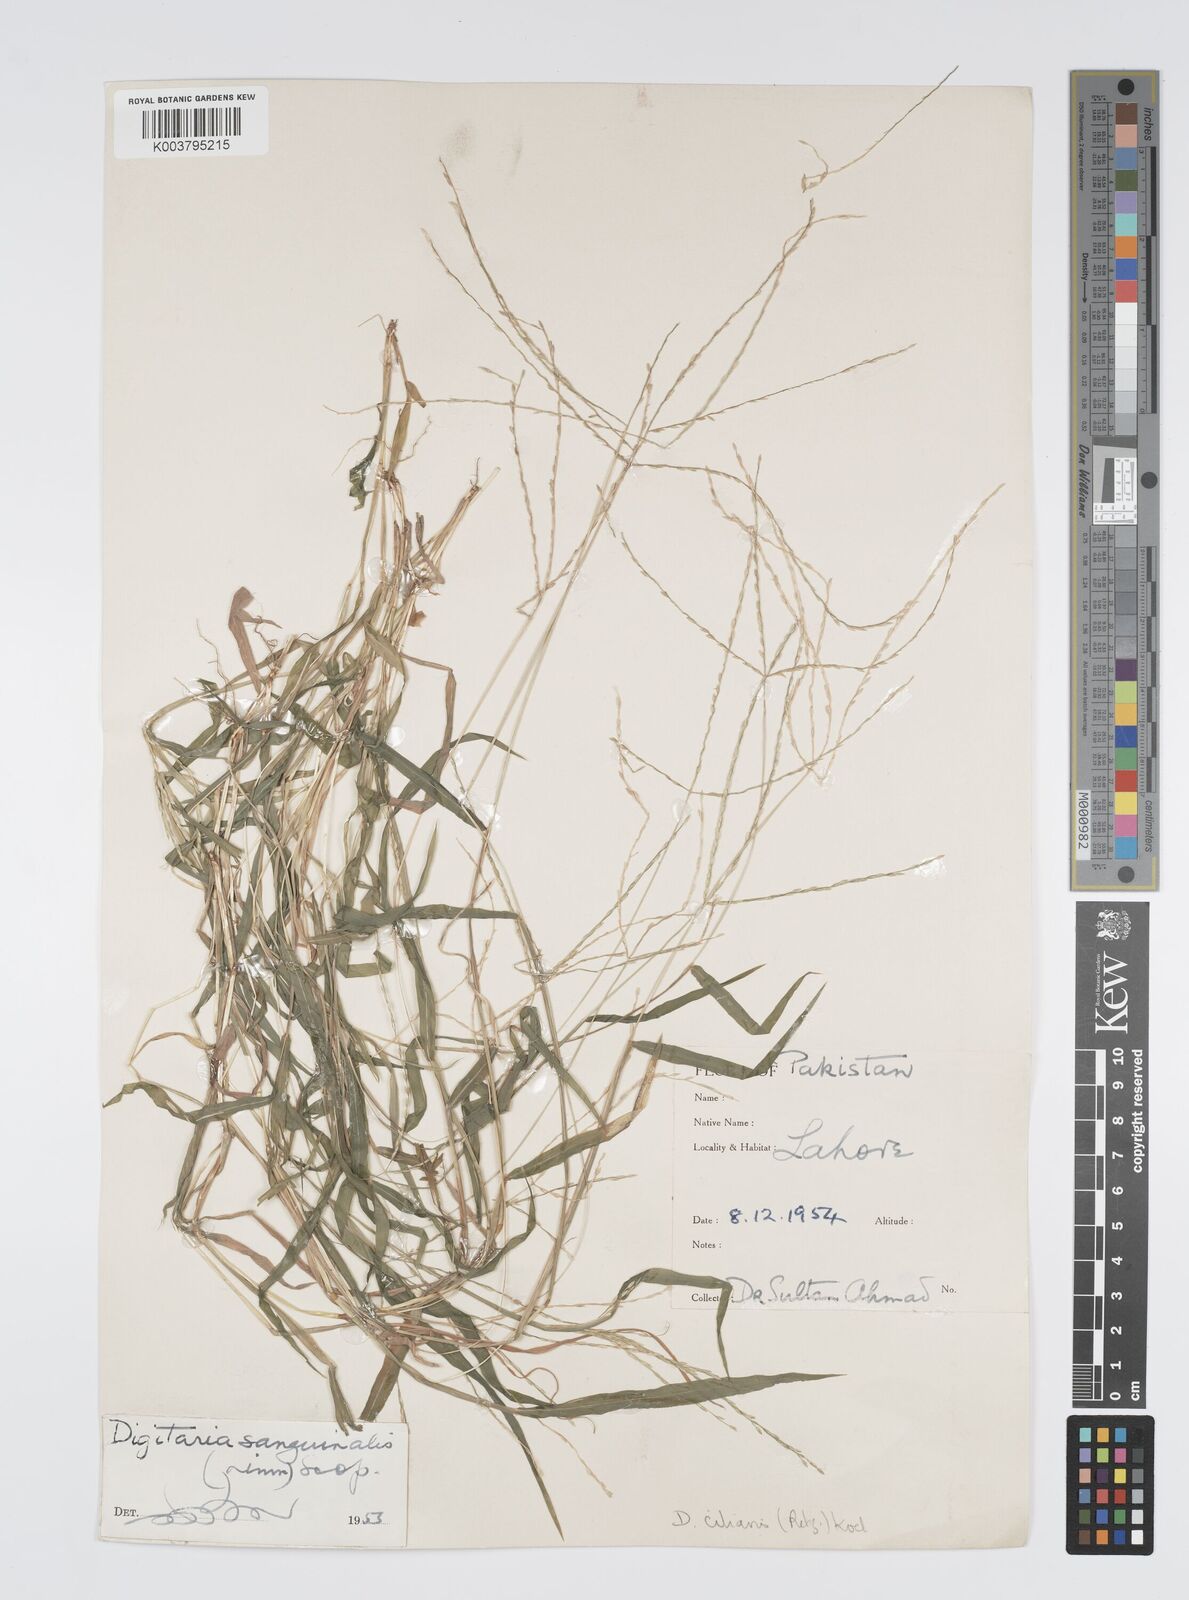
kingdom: Plantae
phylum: Tracheophyta
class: Liliopsida
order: Poales
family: Poaceae
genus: Digitaria
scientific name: Digitaria ciliaris
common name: Tropical finger-grass
